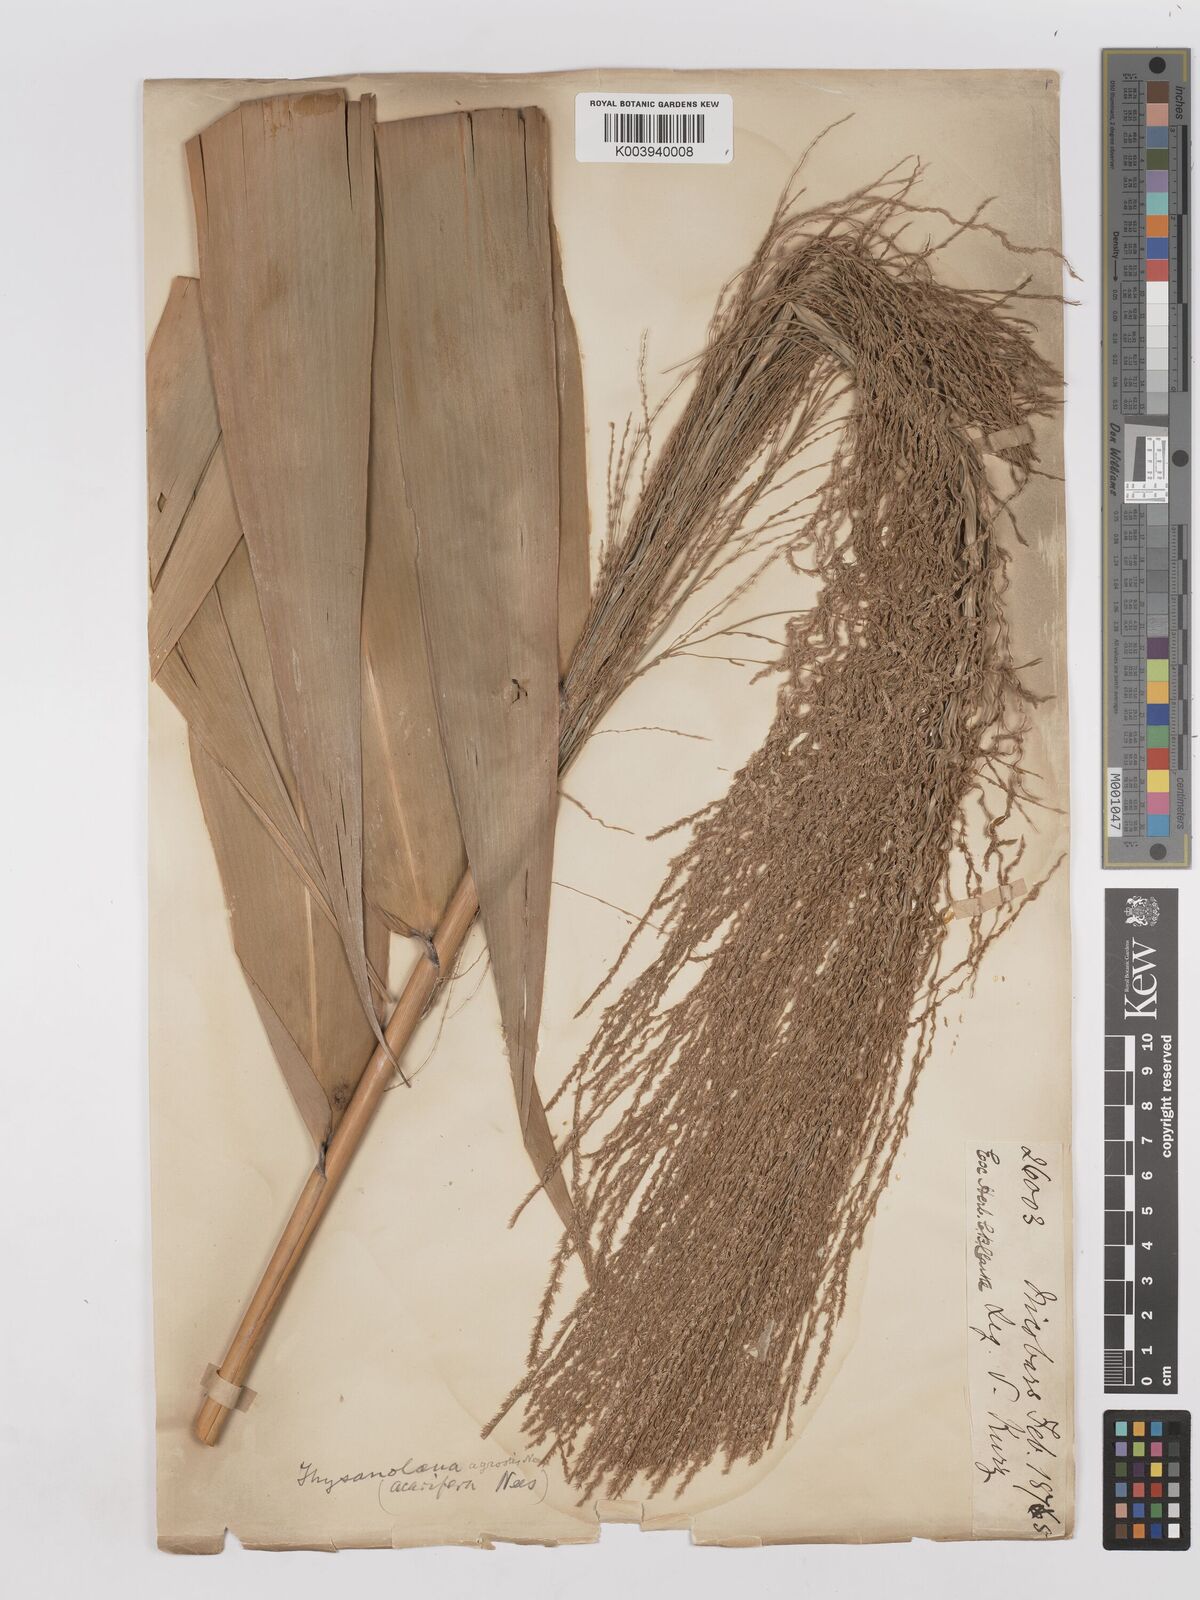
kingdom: Plantae
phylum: Tracheophyta
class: Liliopsida
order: Poales
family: Poaceae
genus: Thysanolaena
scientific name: Thysanolaena latifolia
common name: Tiger grass
